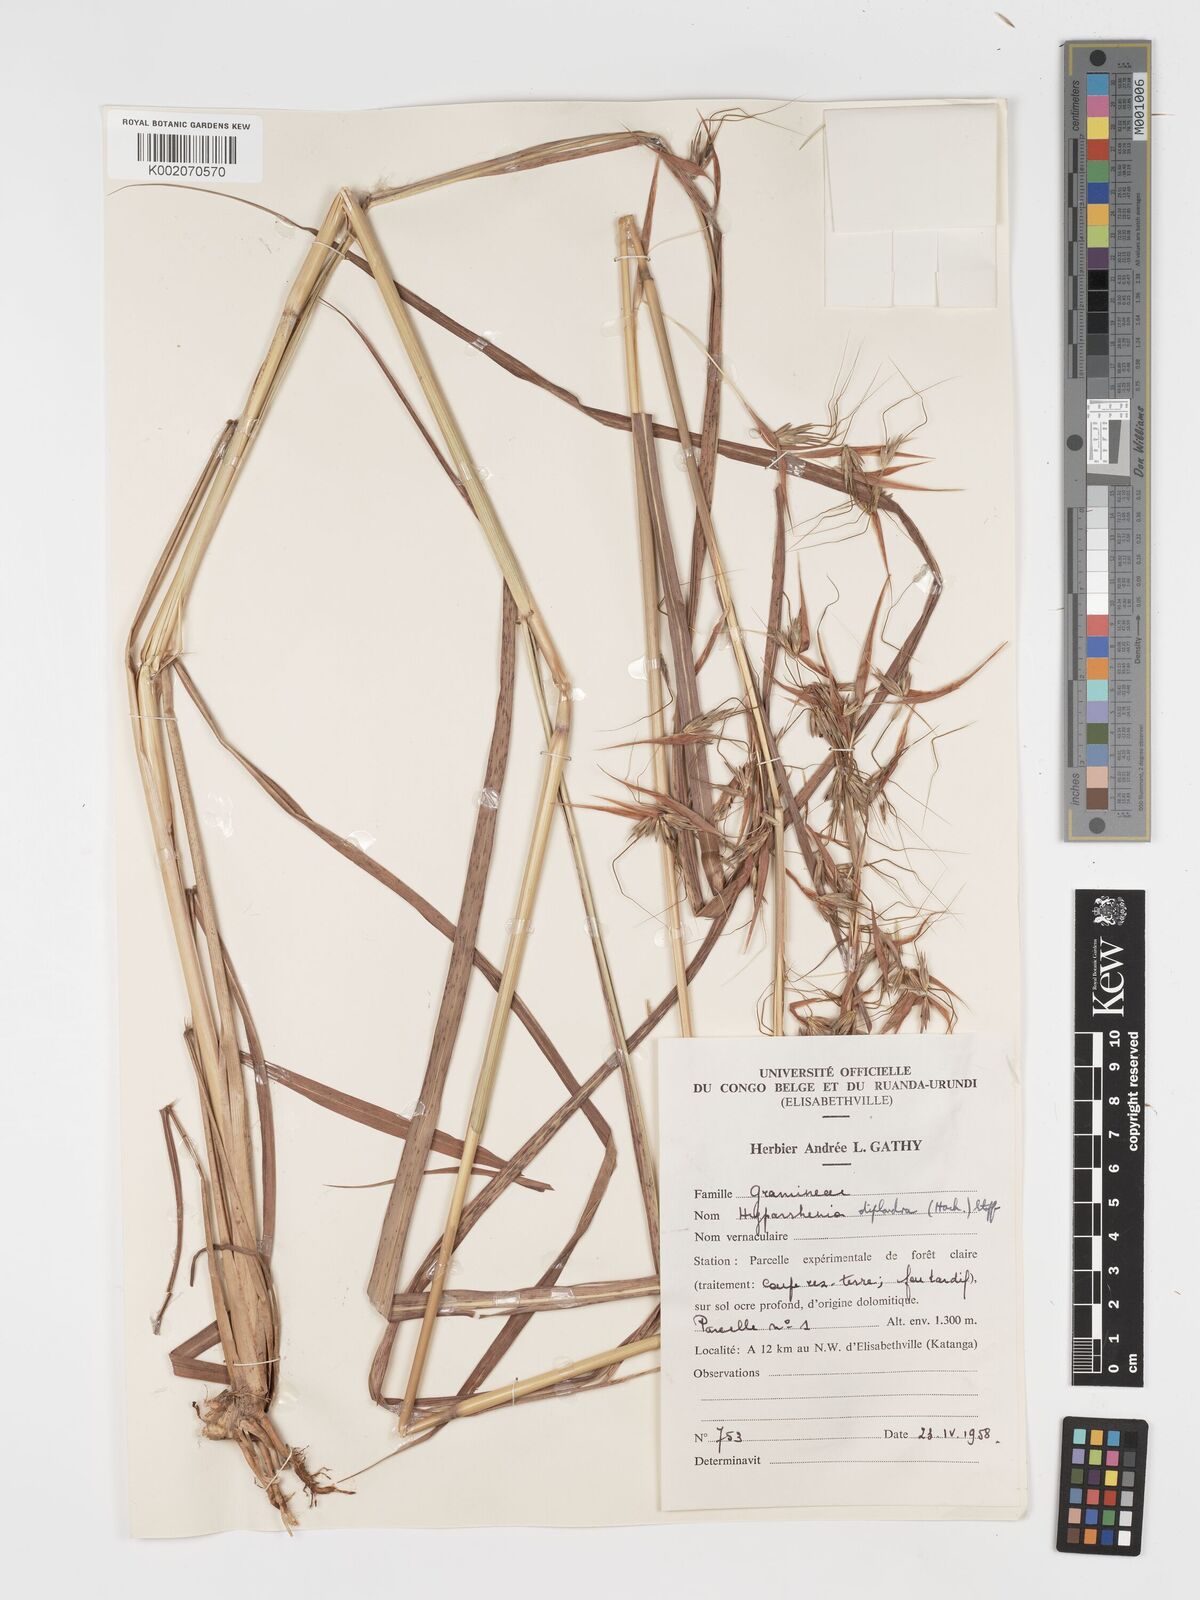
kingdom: Plantae
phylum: Tracheophyta
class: Liliopsida
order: Poales
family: Poaceae
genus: Hyparrhenia
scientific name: Hyparrhenia diplandra
